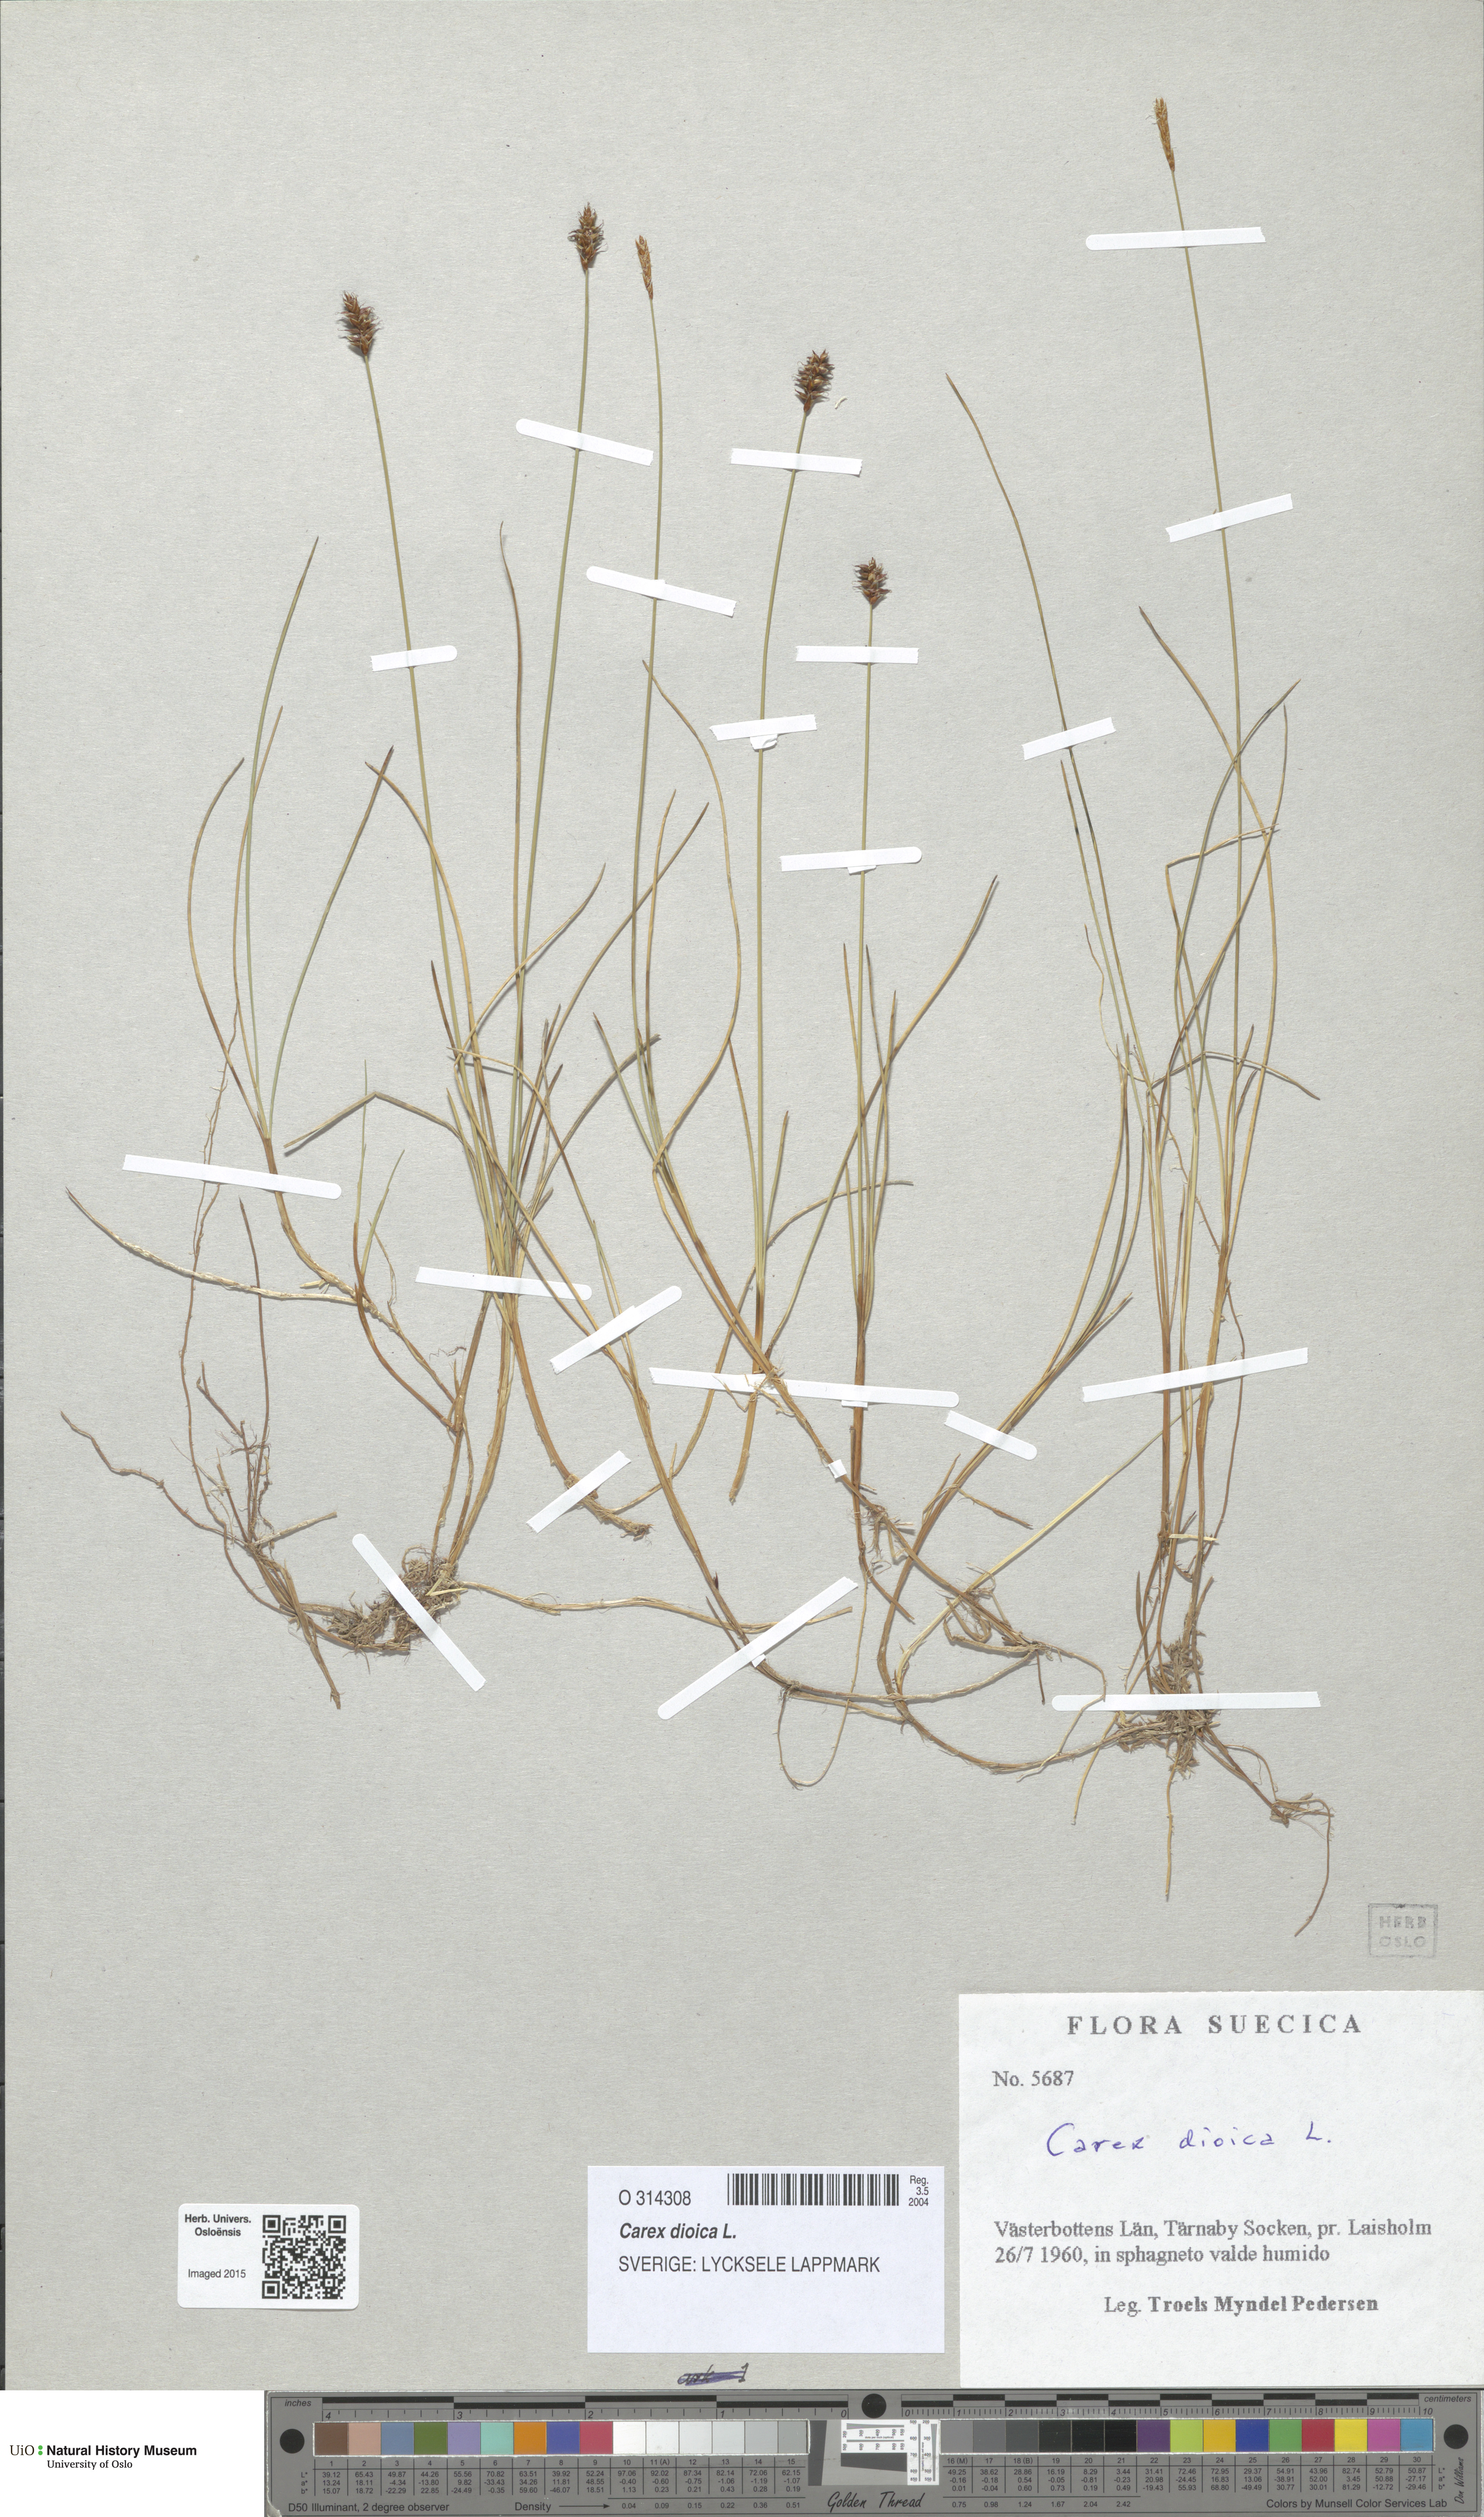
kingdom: Plantae
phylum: Tracheophyta
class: Liliopsida
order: Poales
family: Cyperaceae
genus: Carex
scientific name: Carex dioica
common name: Dioecious sedge
